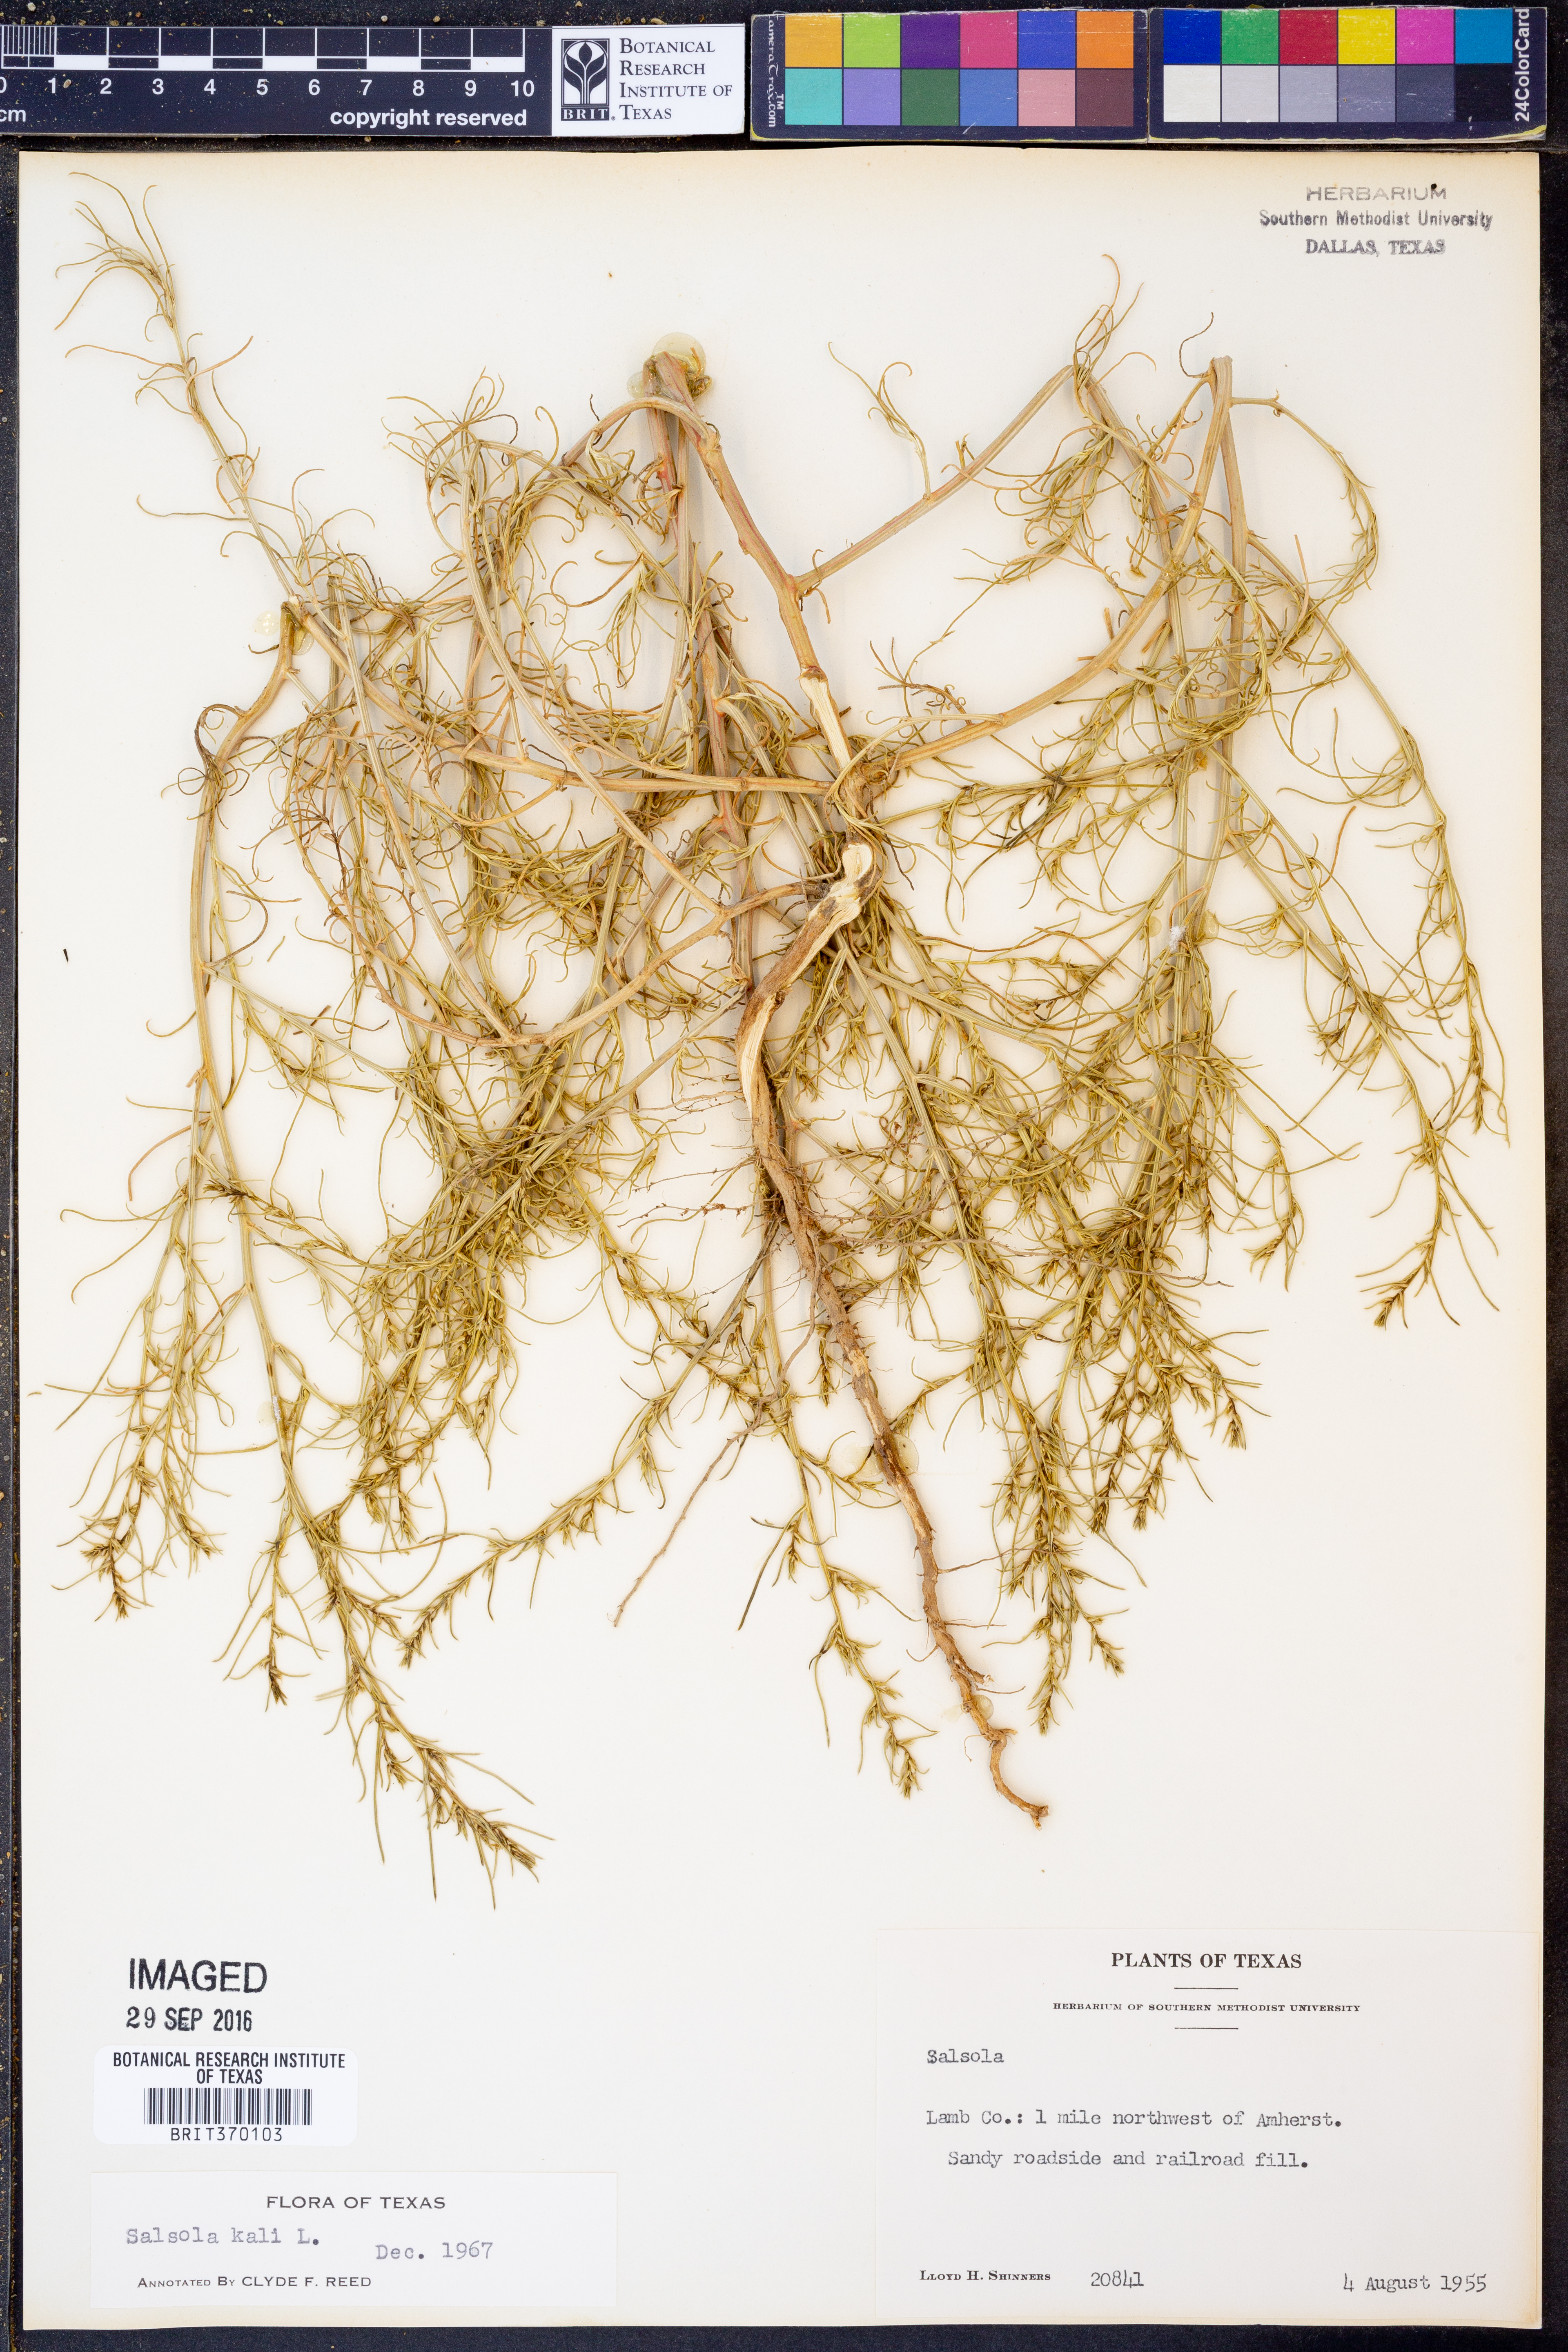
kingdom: Plantae
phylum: Tracheophyta
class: Magnoliopsida
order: Caryophyllales
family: Amaranthaceae
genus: Salsola
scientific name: Salsola tragus
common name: Prickly russian thistle
